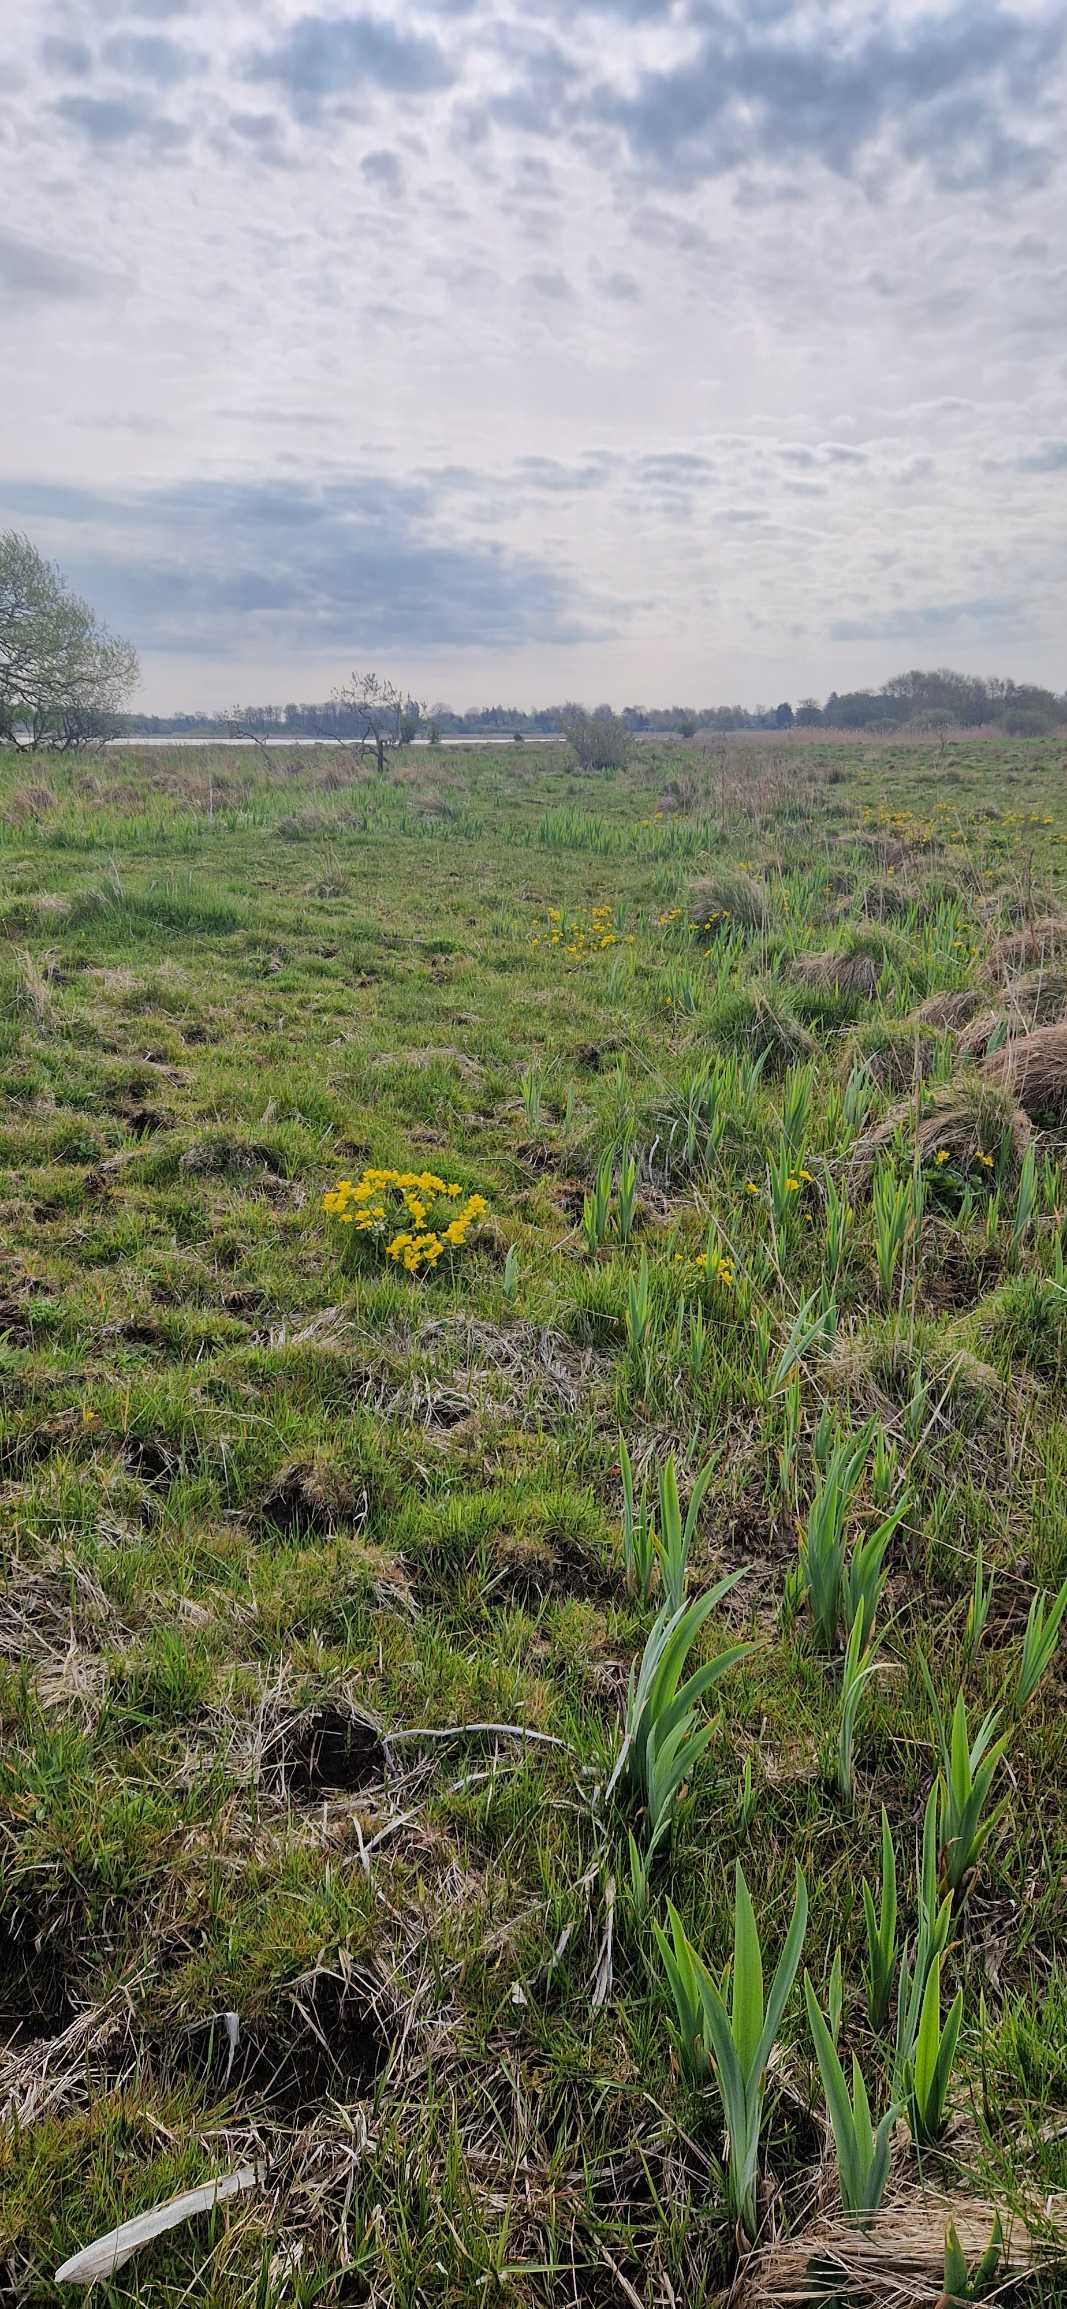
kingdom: Plantae
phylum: Tracheophyta
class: Magnoliopsida
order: Ranunculales
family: Ranunculaceae
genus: Caltha
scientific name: Caltha palustris
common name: Eng-kabbeleje (underart)
